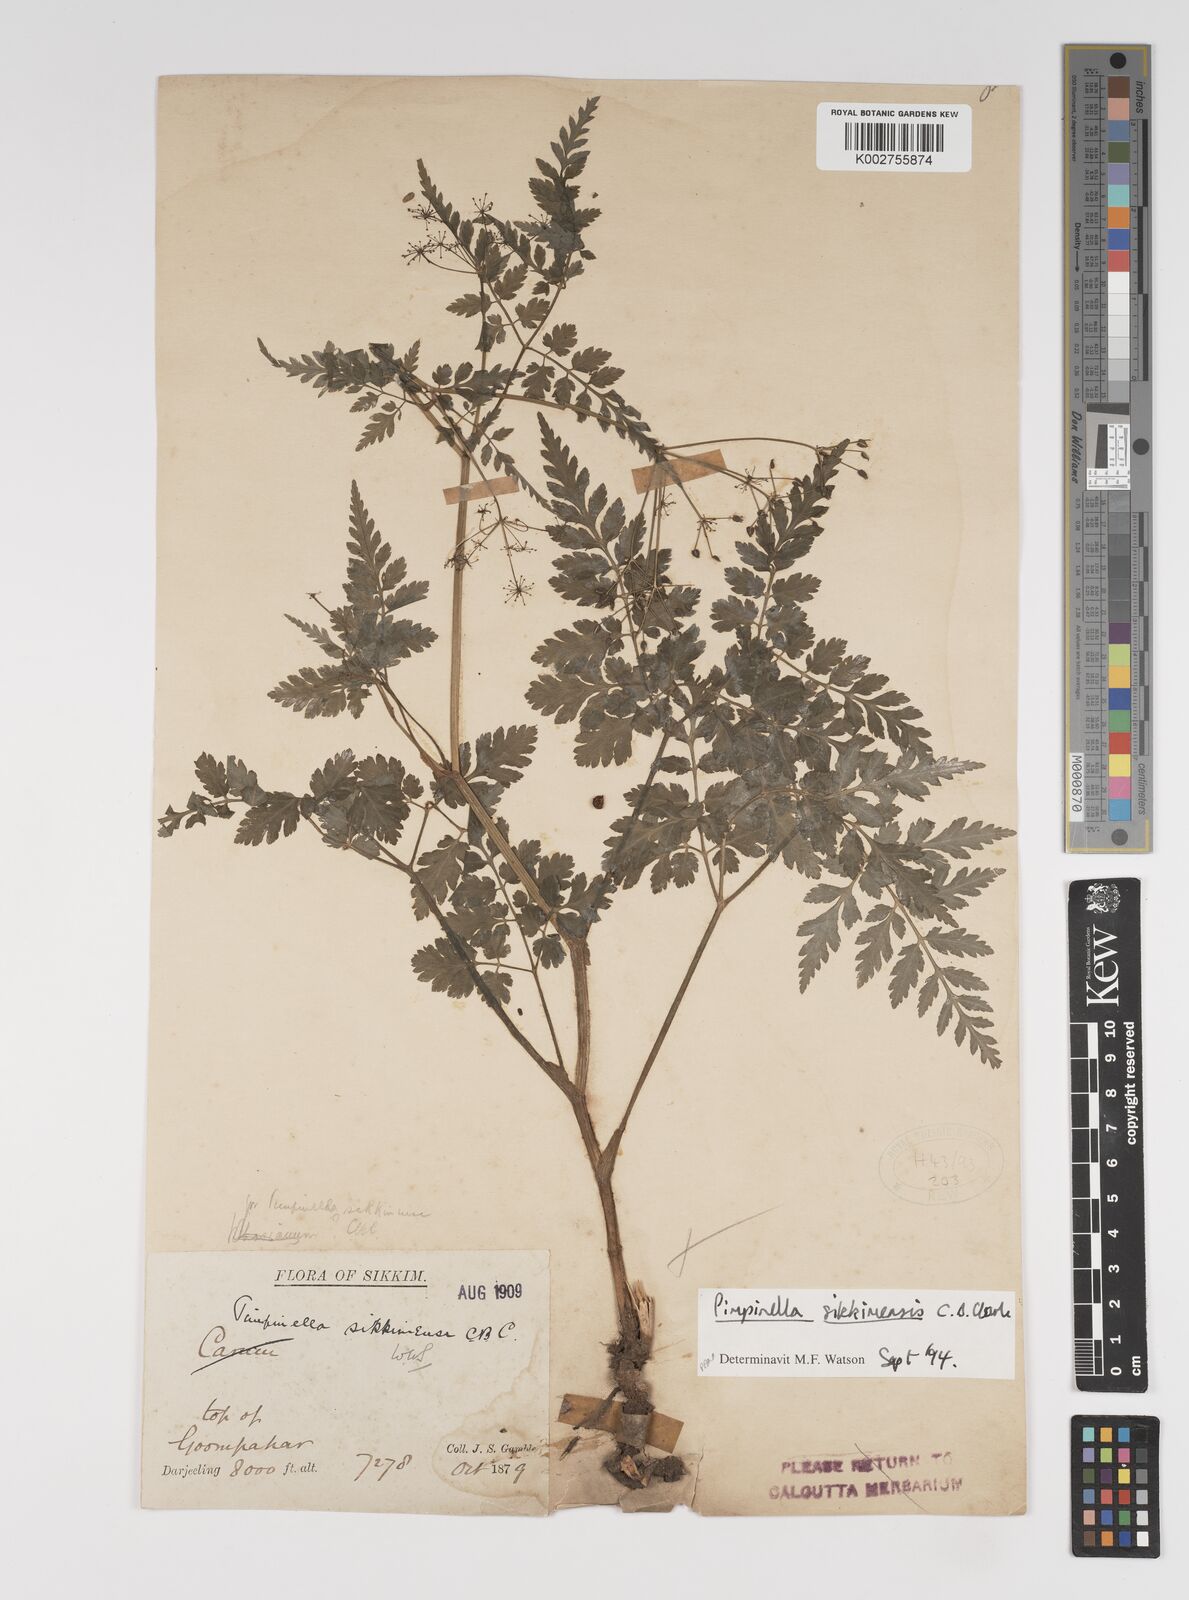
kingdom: Plantae
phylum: Tracheophyta
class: Magnoliopsida
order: Apiales
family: Apiaceae
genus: Pimpinella
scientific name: Pimpinella sikkimensis
